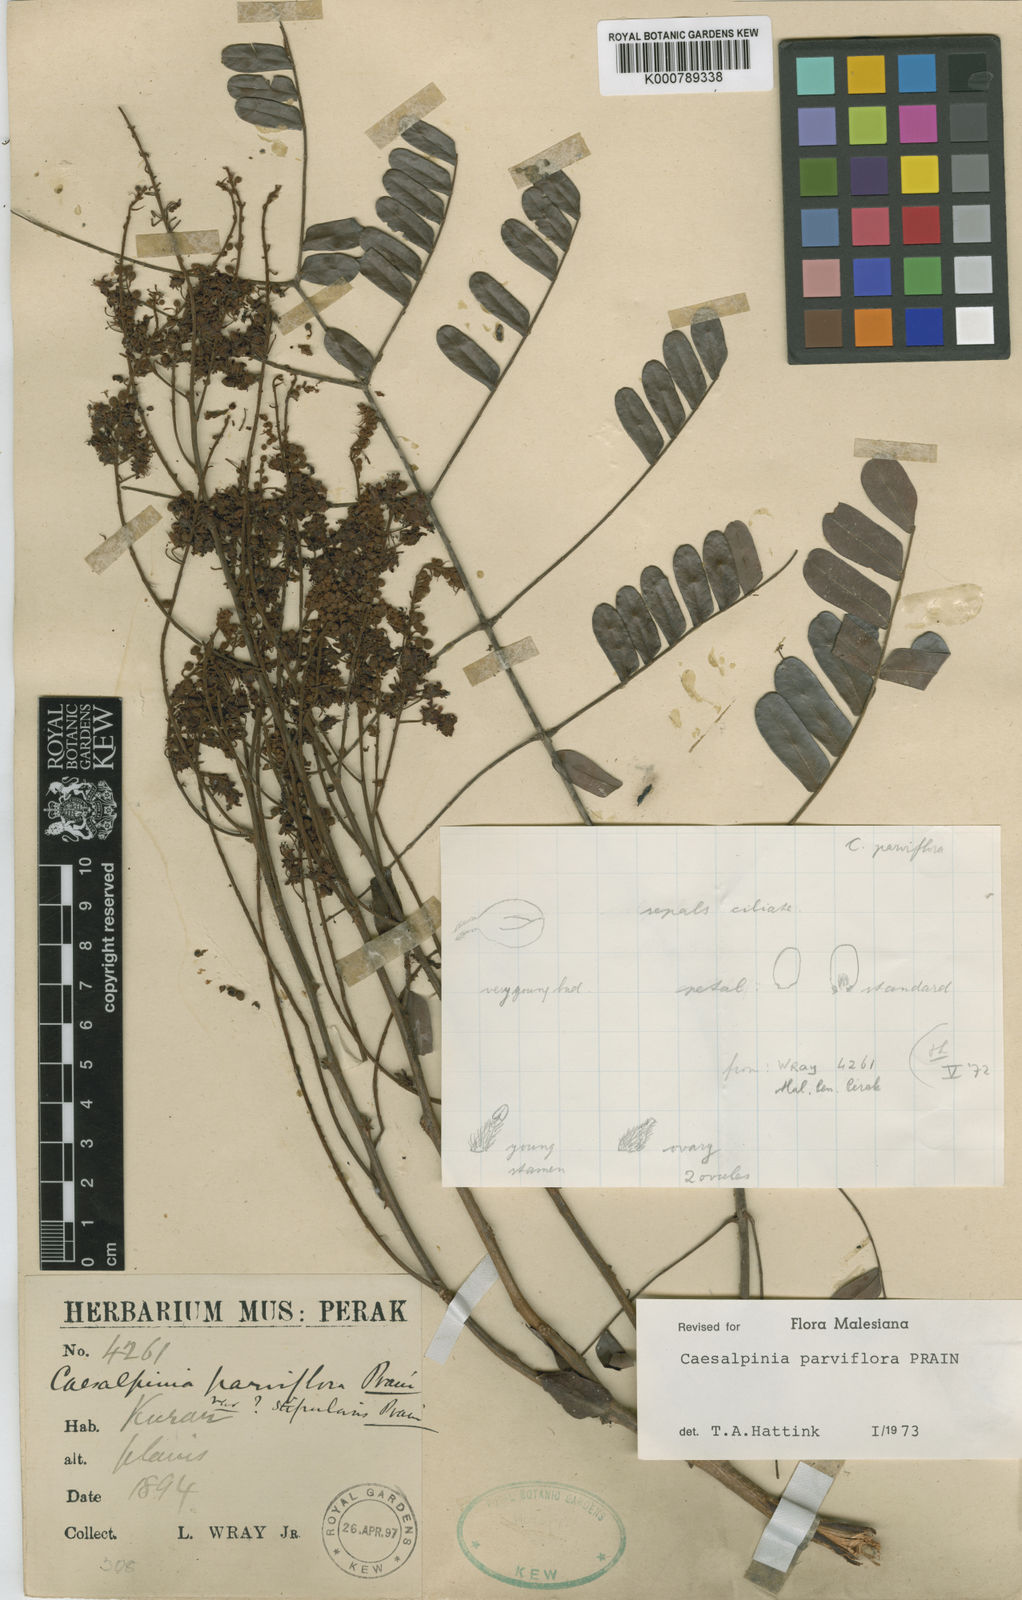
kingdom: Plantae
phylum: Tracheophyta
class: Magnoliopsida
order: Fabales
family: Fabaceae
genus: Caesalpinia
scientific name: Caesalpinia
